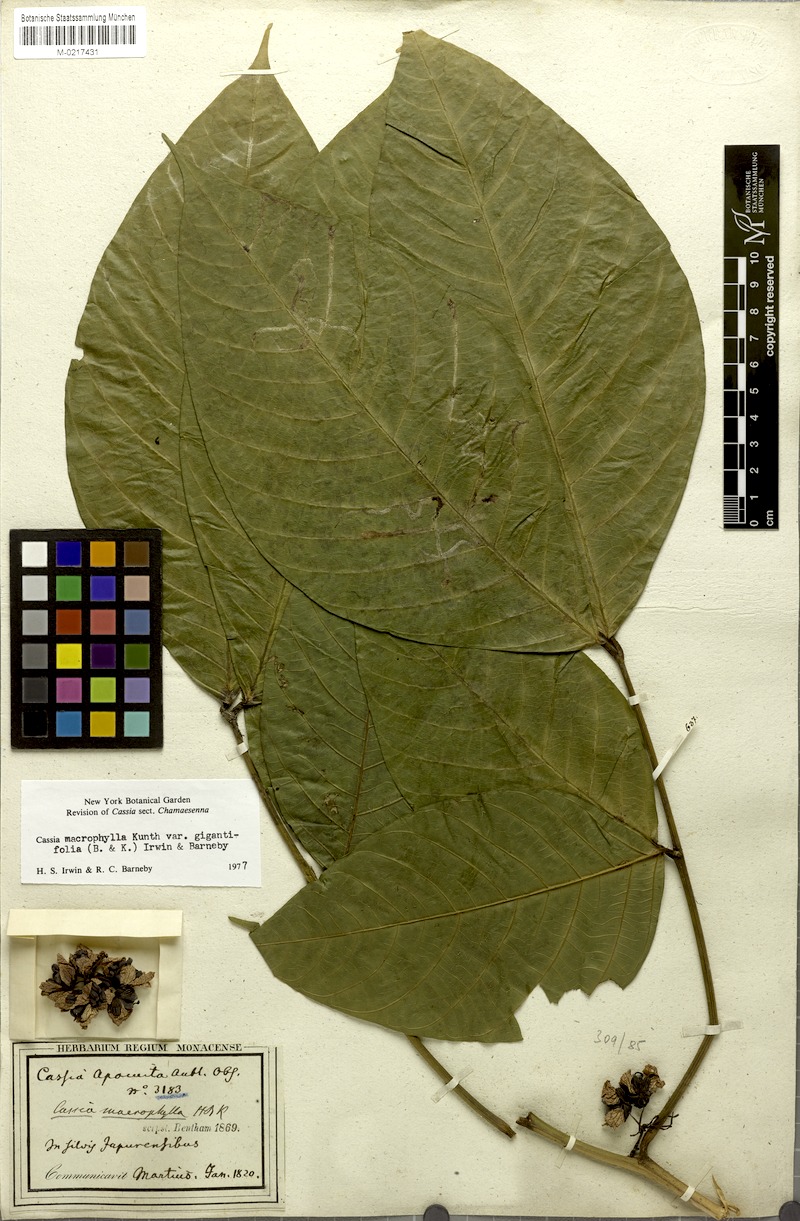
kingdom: Plantae
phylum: Tracheophyta
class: Magnoliopsida
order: Fabales
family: Fabaceae
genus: Senna
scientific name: Senna macrophylla
